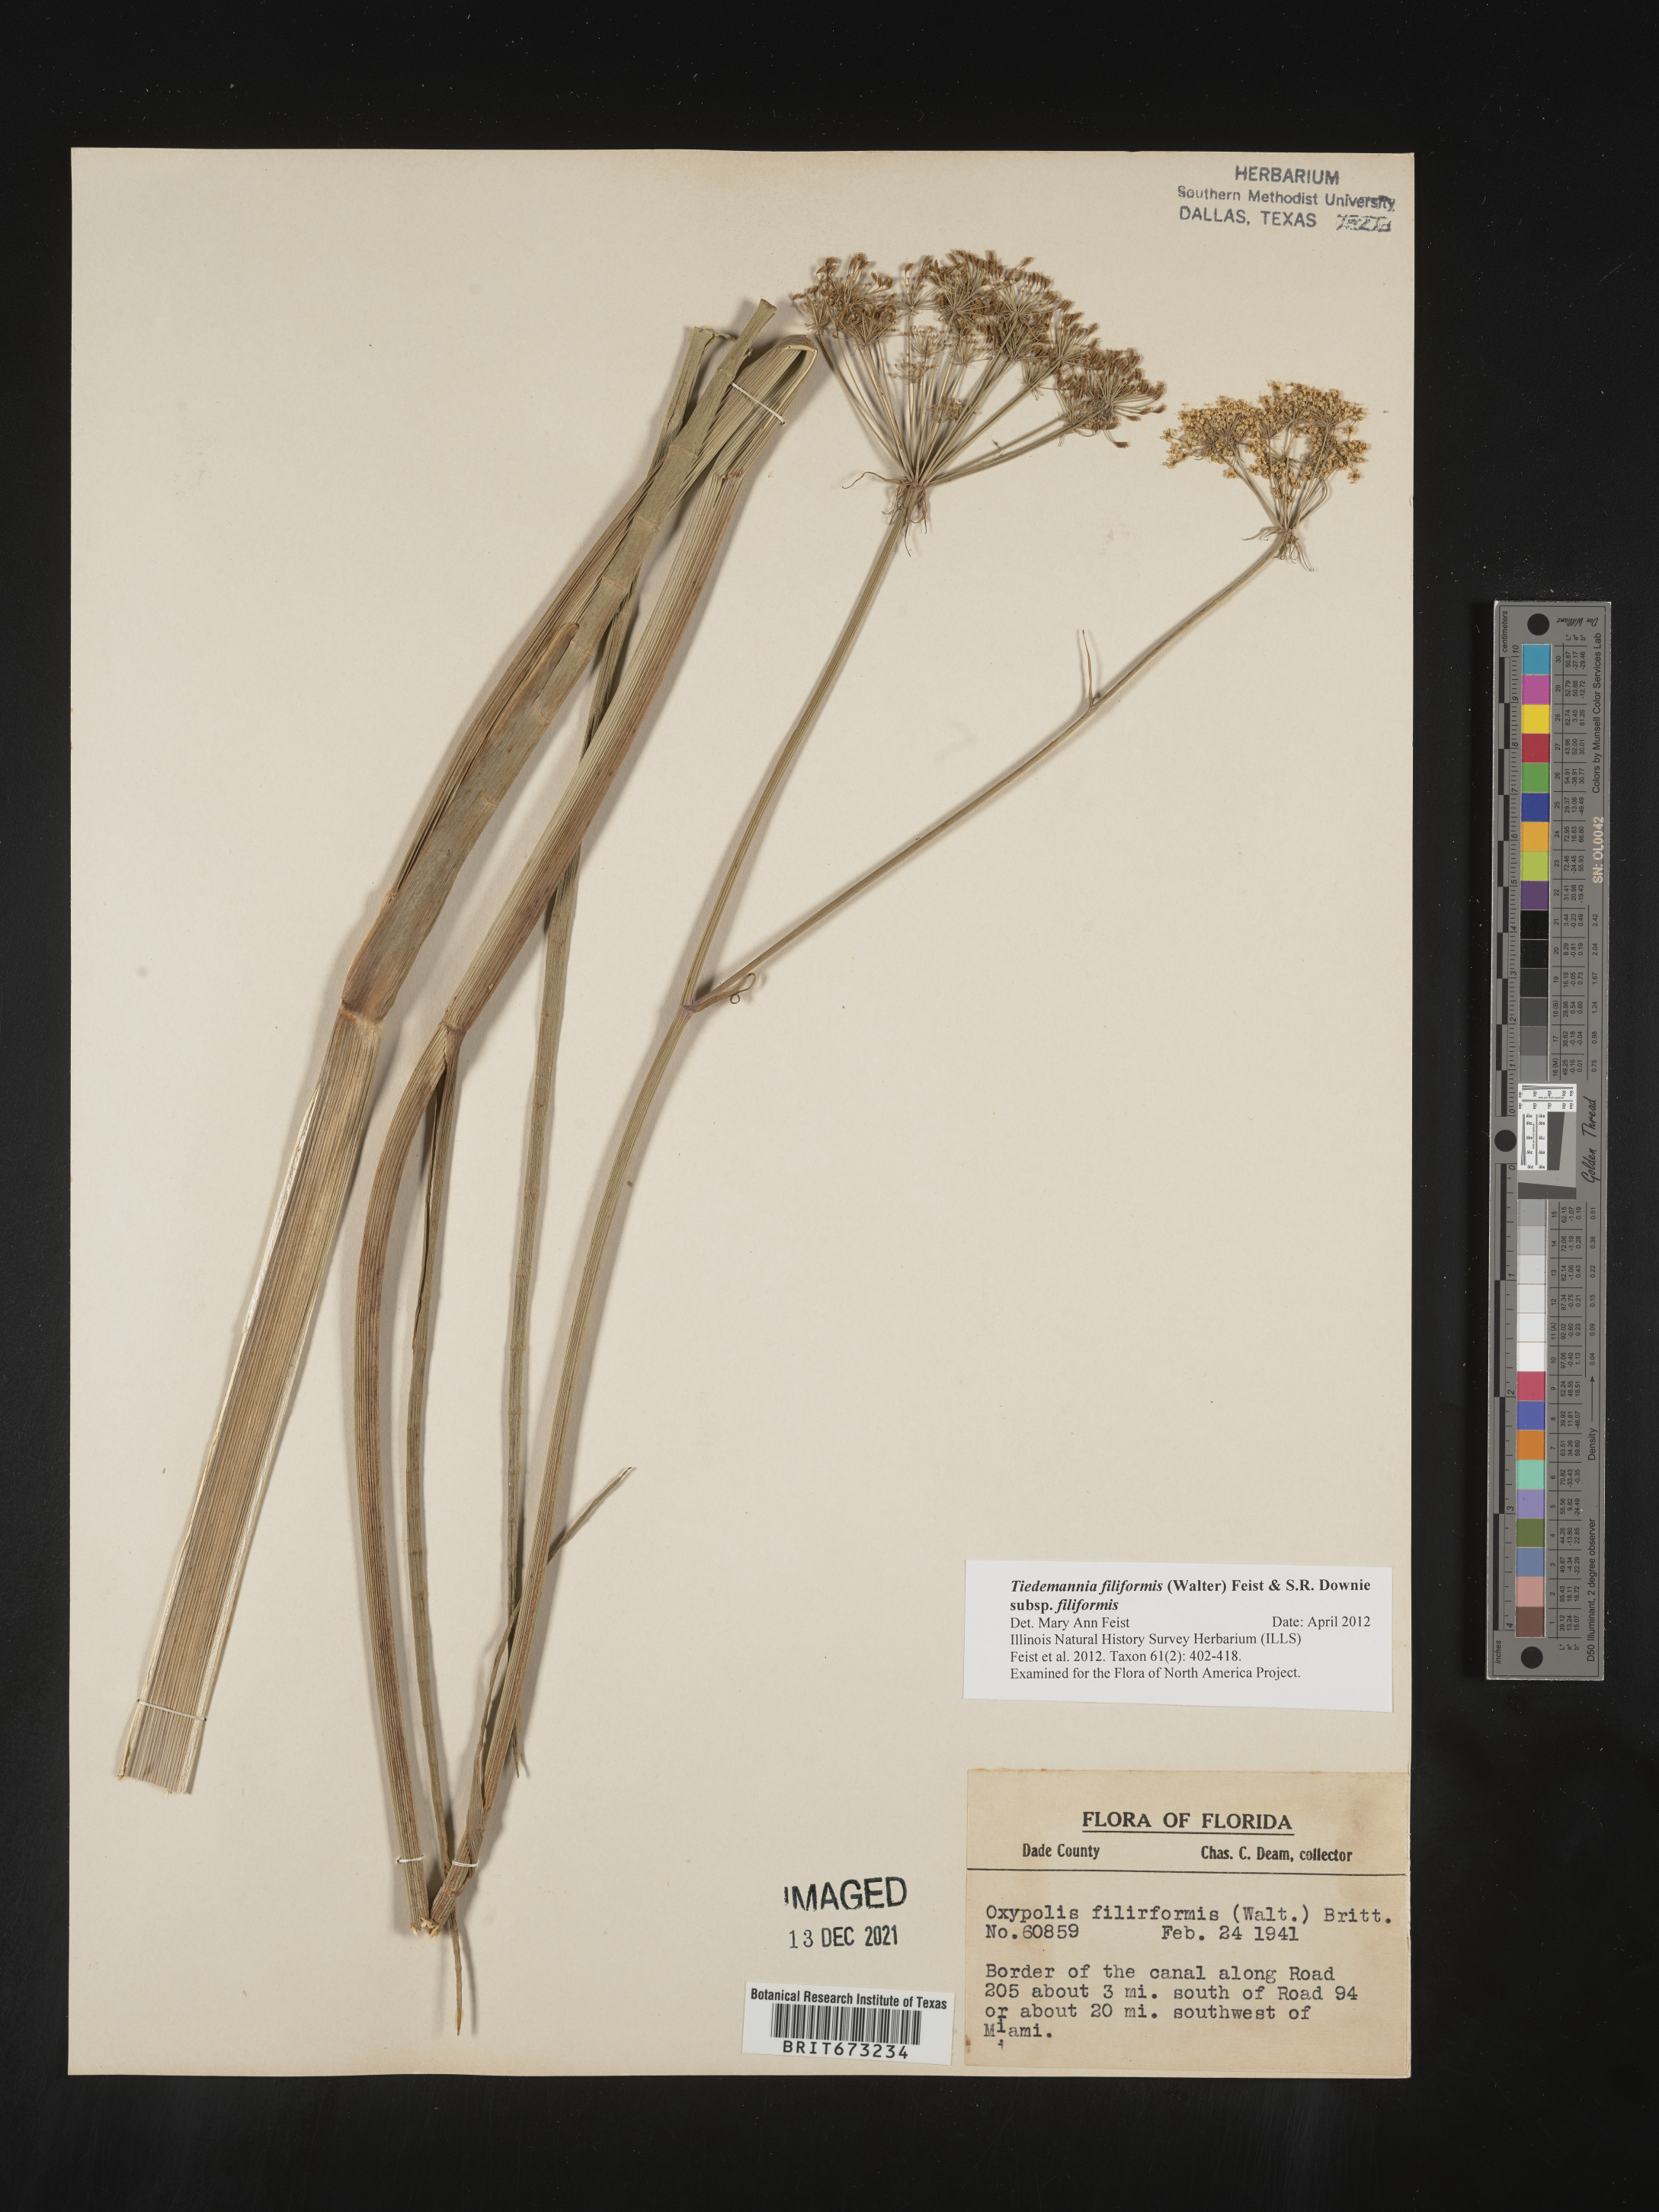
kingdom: Plantae
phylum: Tracheophyta
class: Magnoliopsida
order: Apiales
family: Apiaceae
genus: Tiedemannia
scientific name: Tiedemannia
